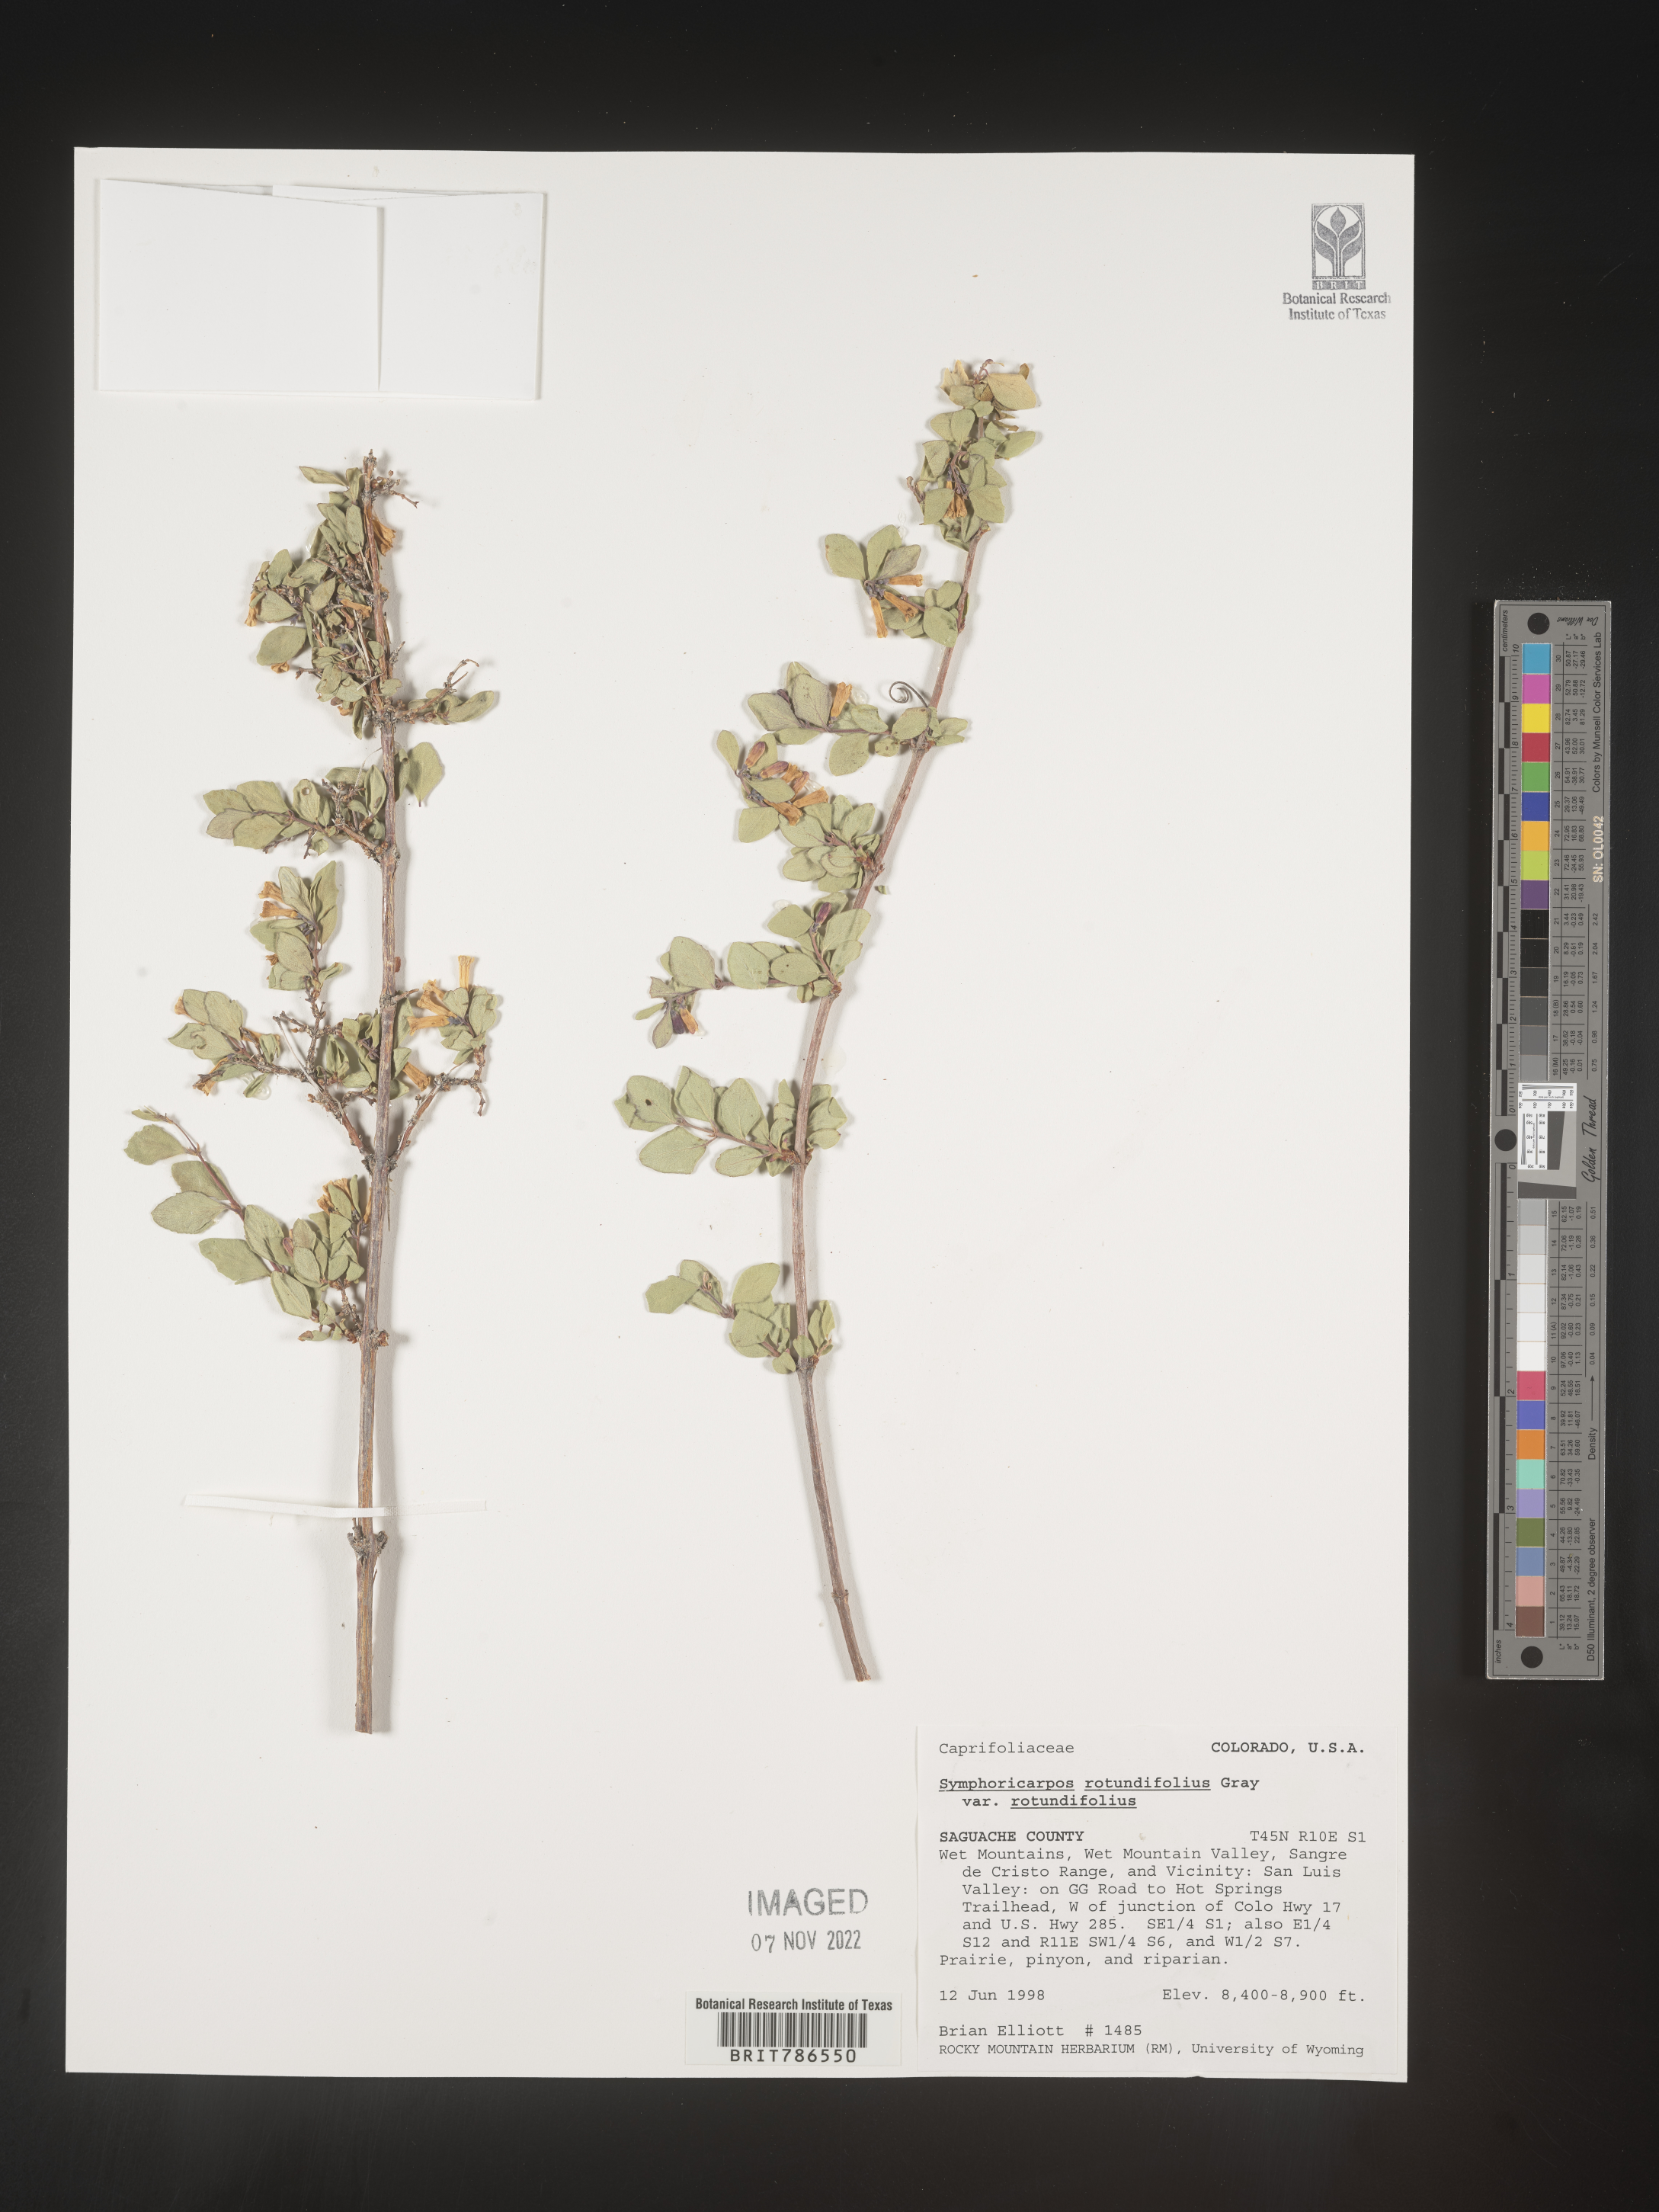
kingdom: Plantae
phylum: Tracheophyta
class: Magnoliopsida
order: Dipsacales
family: Caprifoliaceae
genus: Symphoricarpos
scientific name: Symphoricarpos
